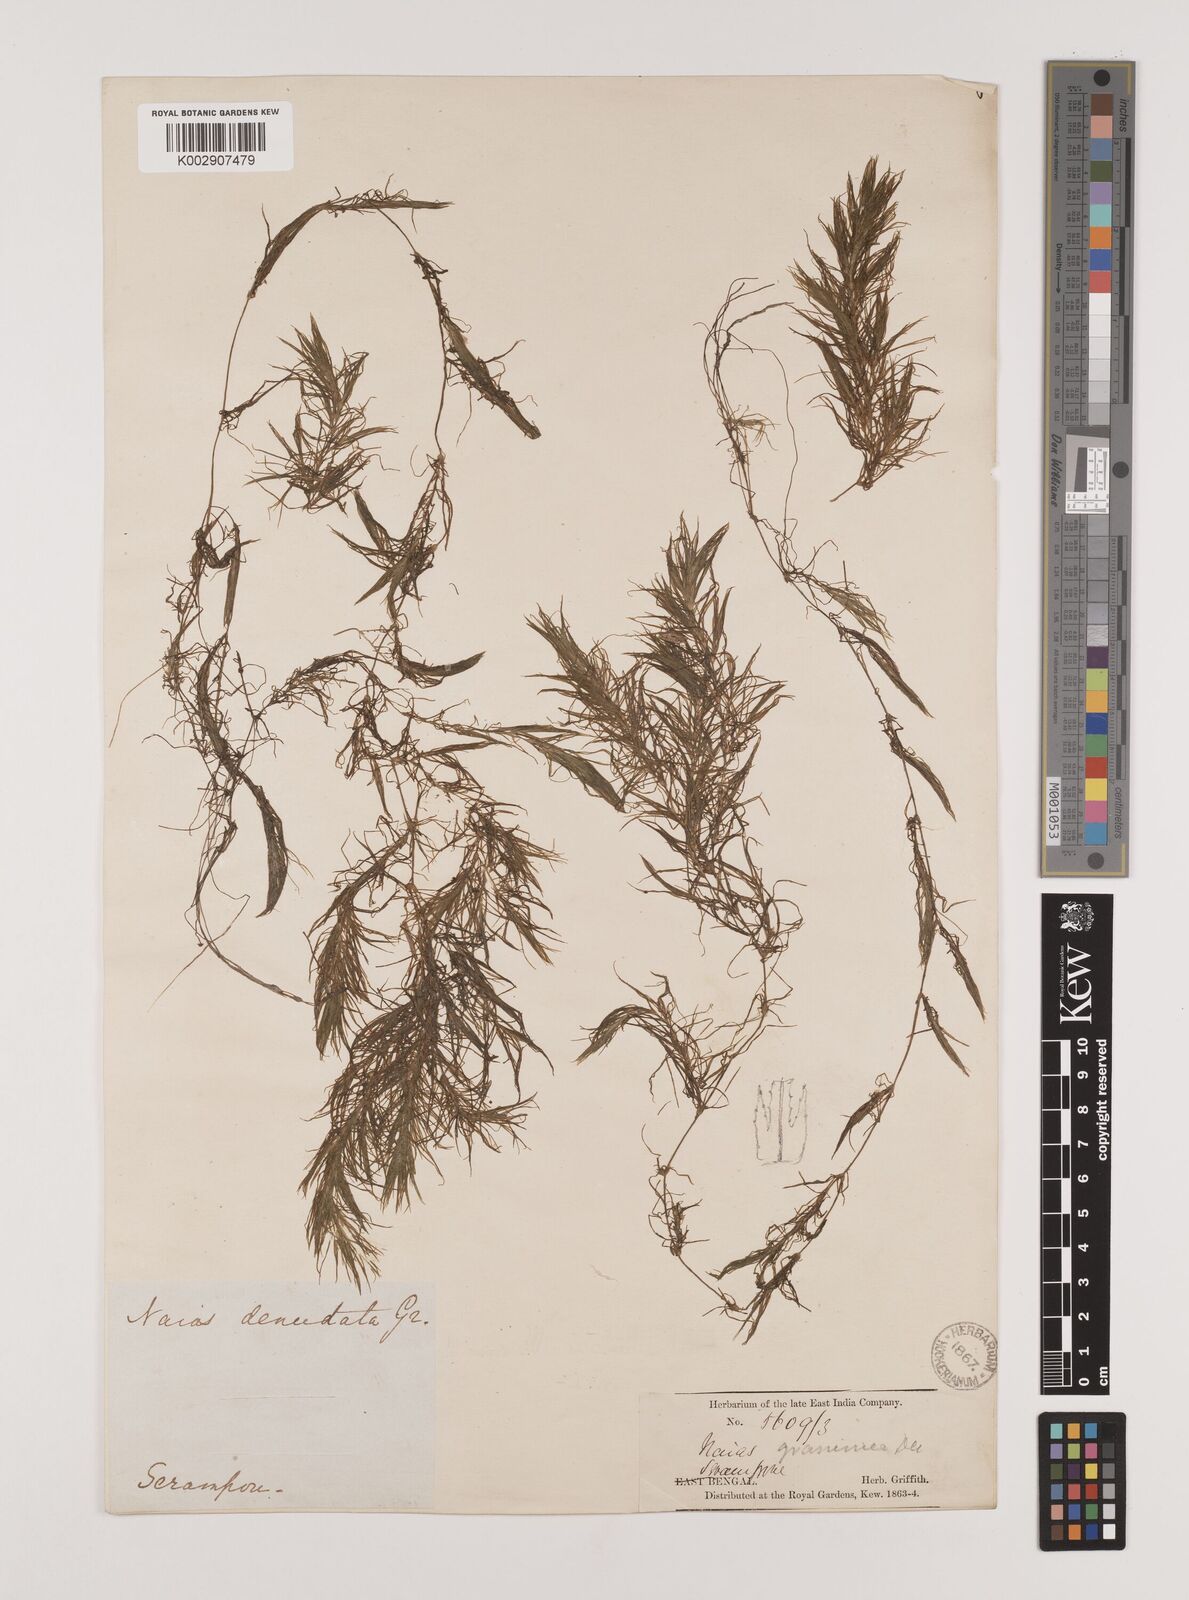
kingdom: Plantae
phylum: Tracheophyta
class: Liliopsida
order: Alismatales
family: Hydrocharitaceae
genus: Najas
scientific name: Najas graminea
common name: Ricefield waternymph
